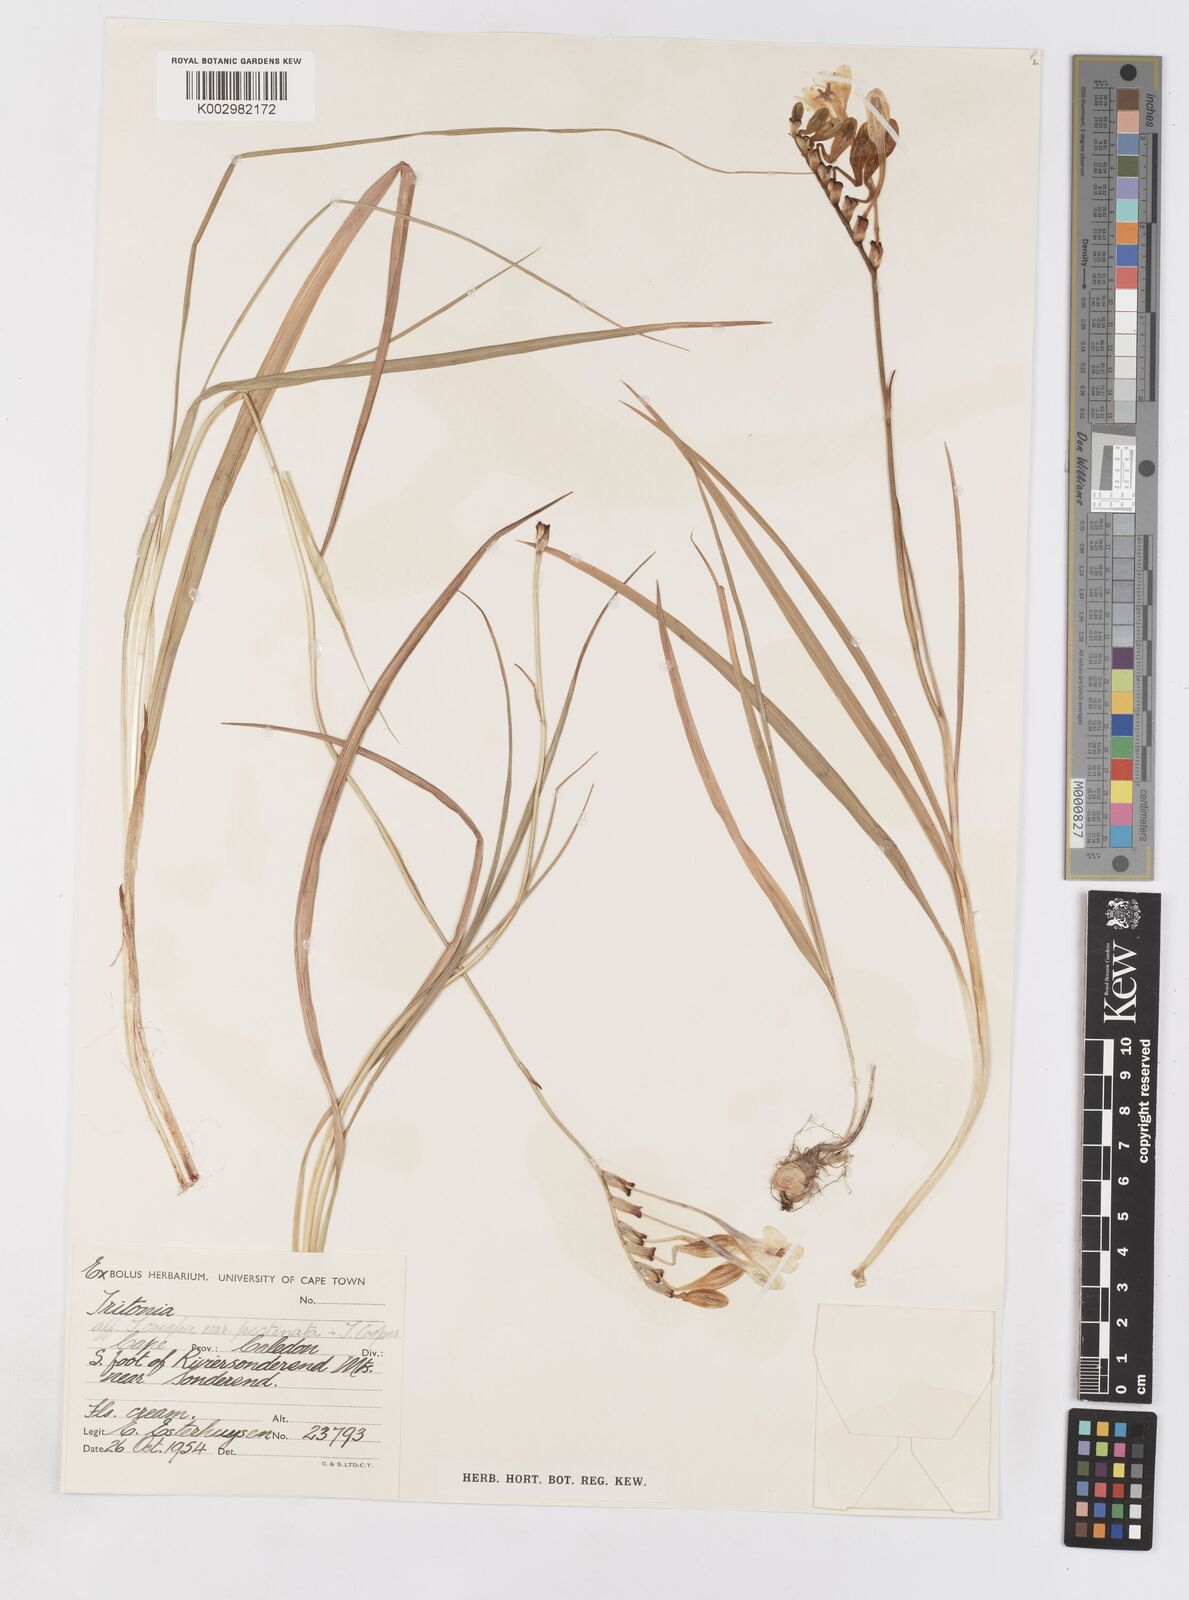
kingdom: Plantae
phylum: Tracheophyta
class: Liliopsida
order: Asparagales
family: Iridaceae
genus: Tritonia
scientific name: Tritonia undulata
